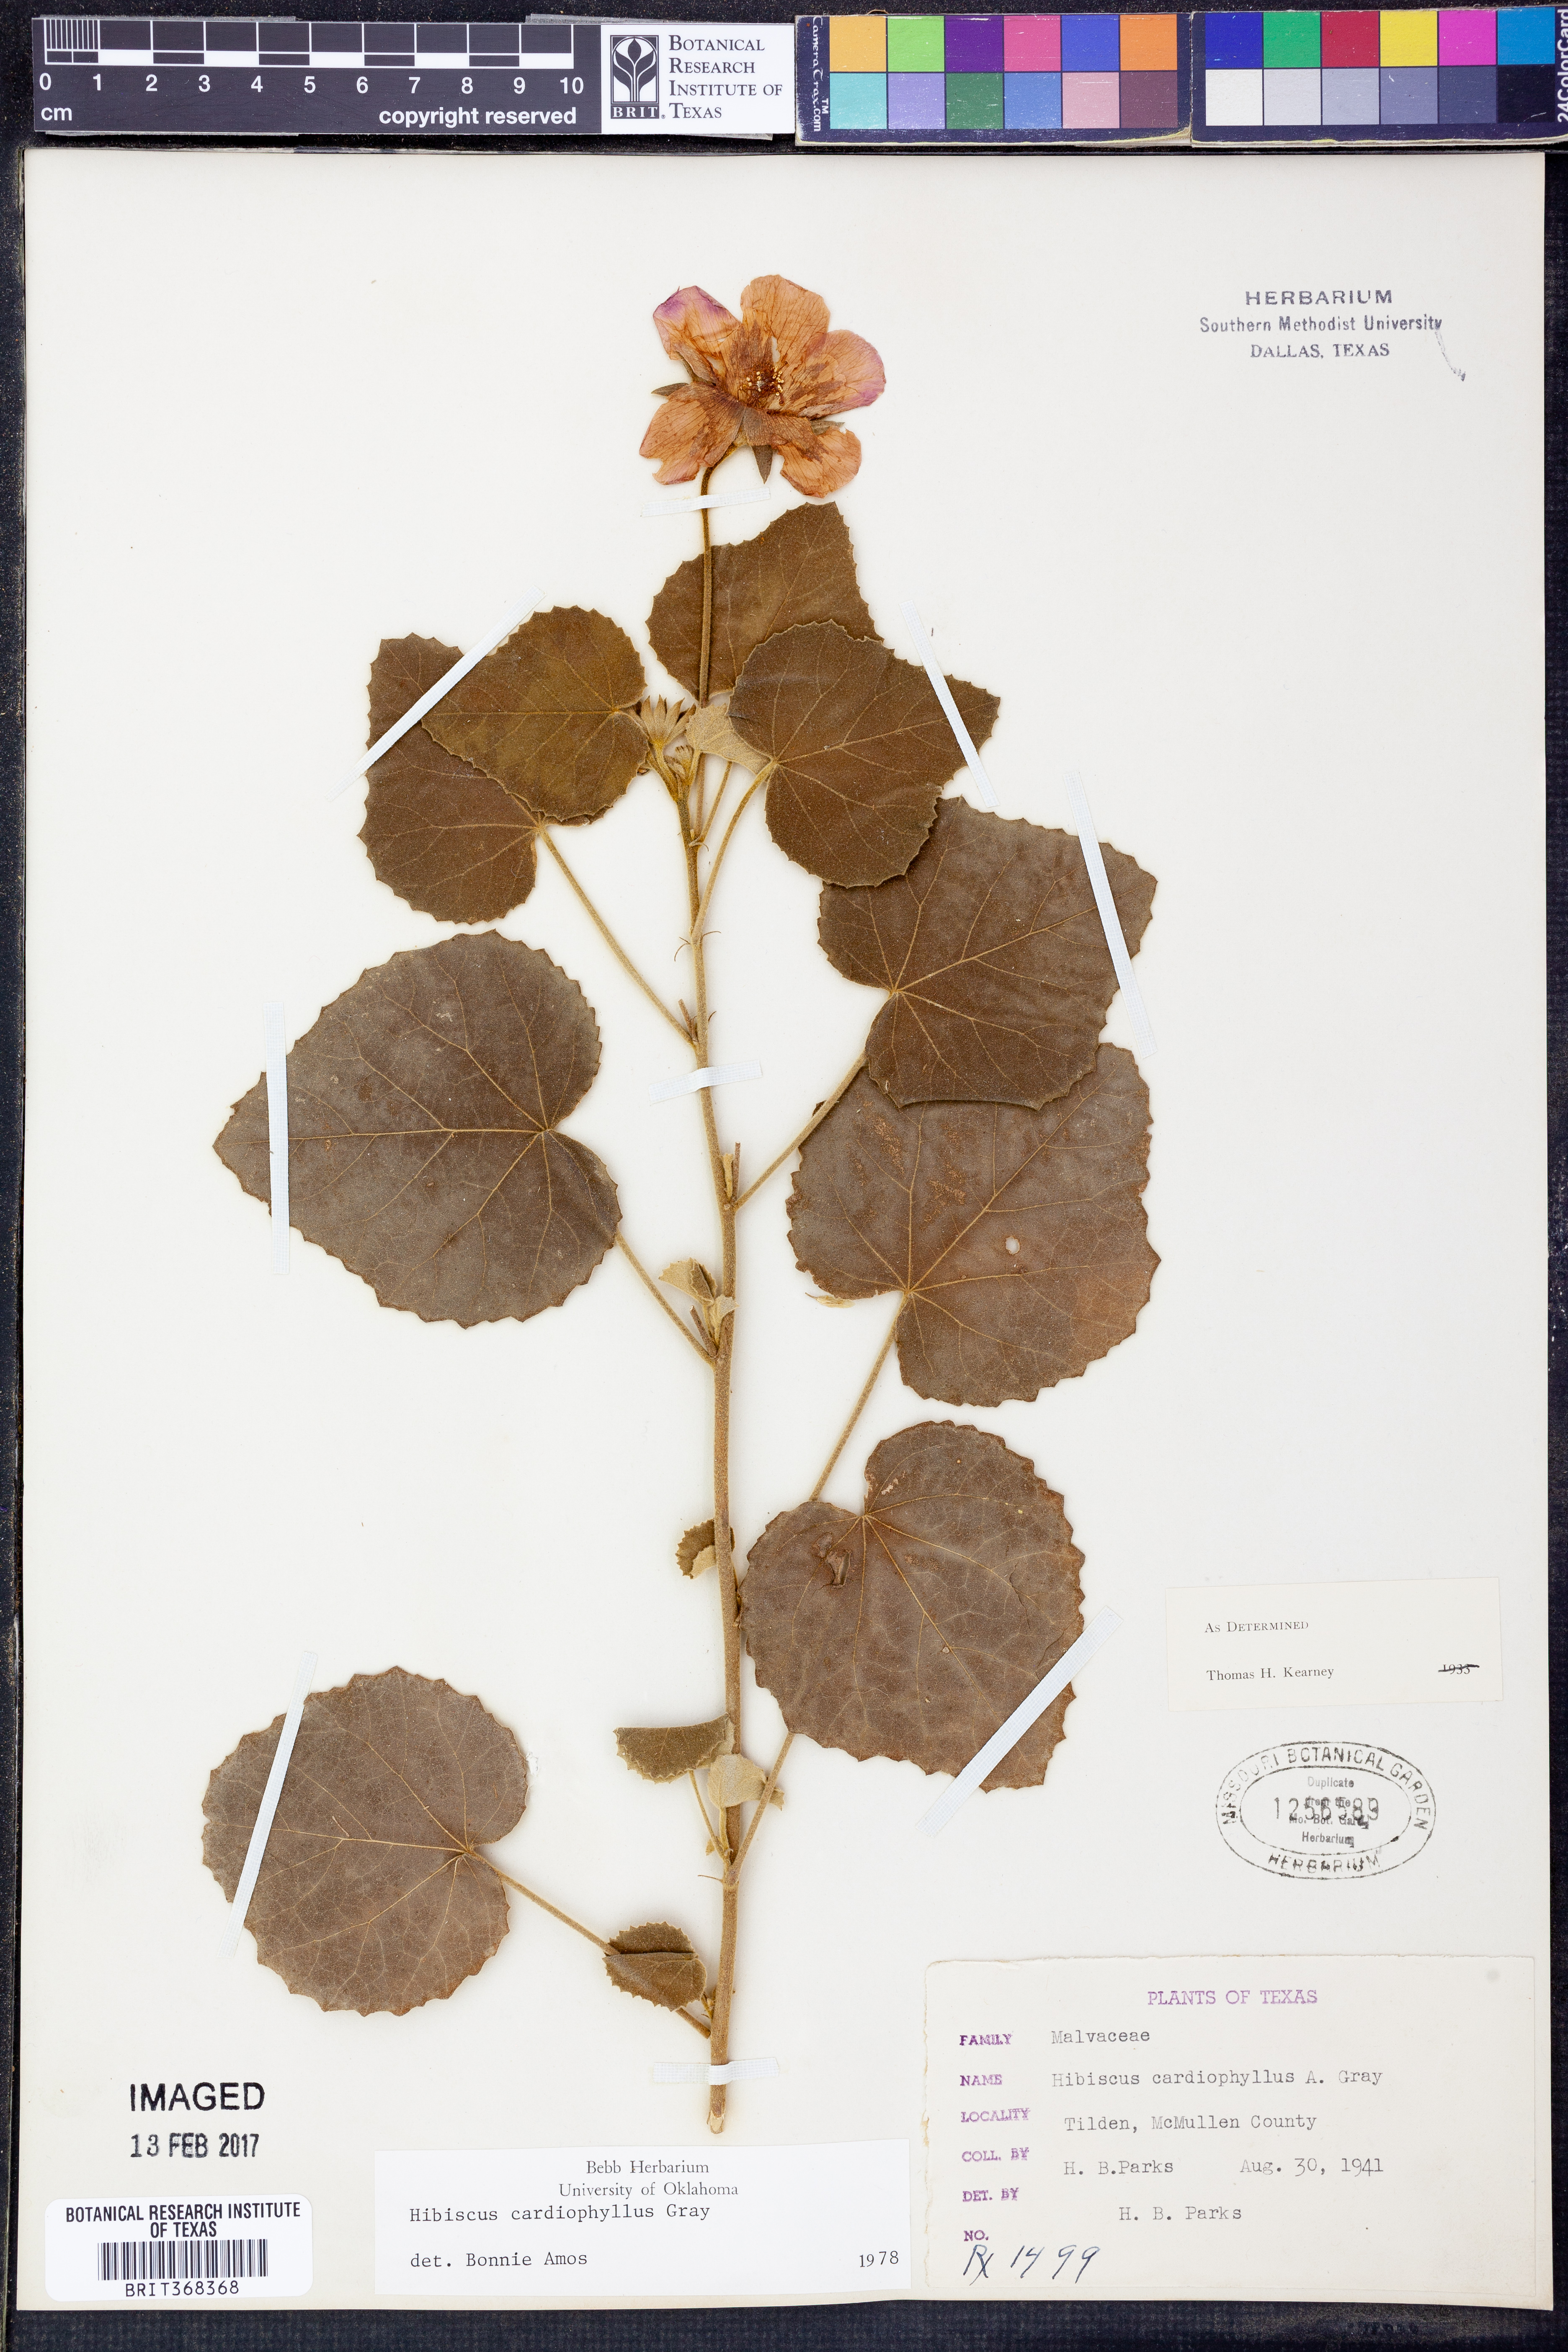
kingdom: Plantae
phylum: Tracheophyta
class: Magnoliopsida
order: Malvales
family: Malvaceae
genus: Abelmoschus
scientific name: Abelmoschus moschatus
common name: Musk okra
